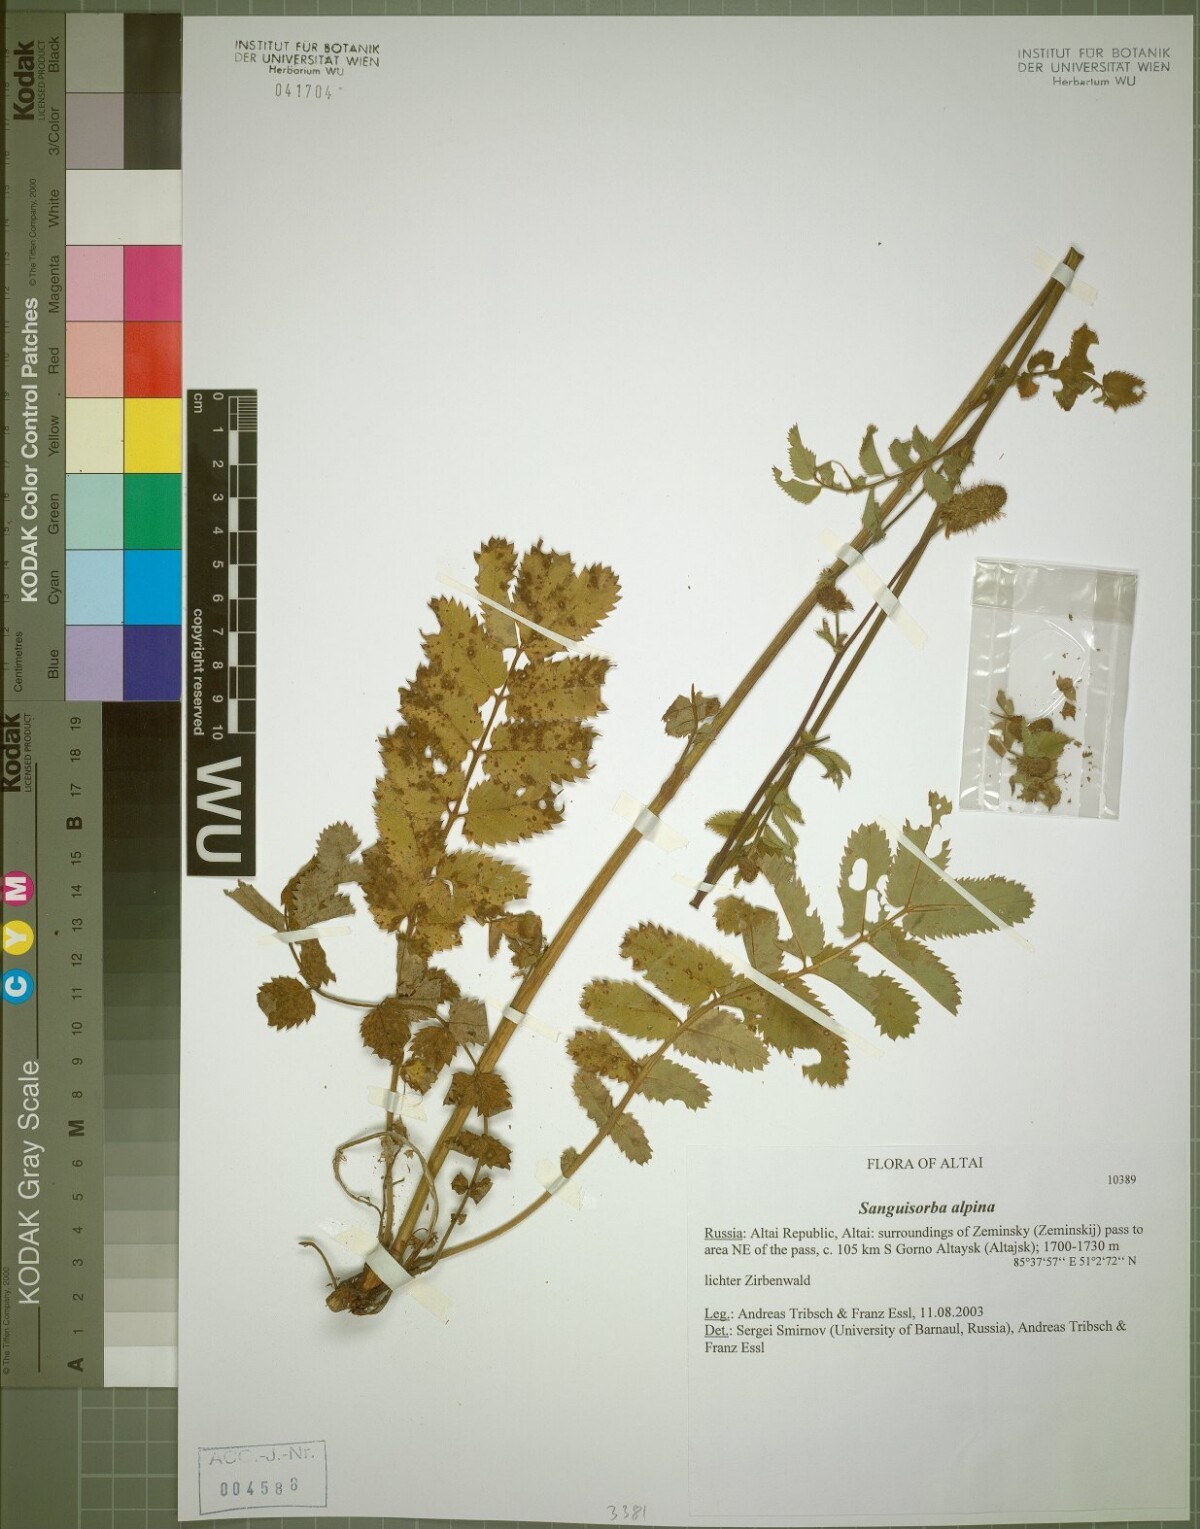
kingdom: Plantae
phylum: Tracheophyta
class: Magnoliopsida
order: Rosales
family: Rosaceae
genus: Sanguisorba
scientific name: Sanguisorba alpina
